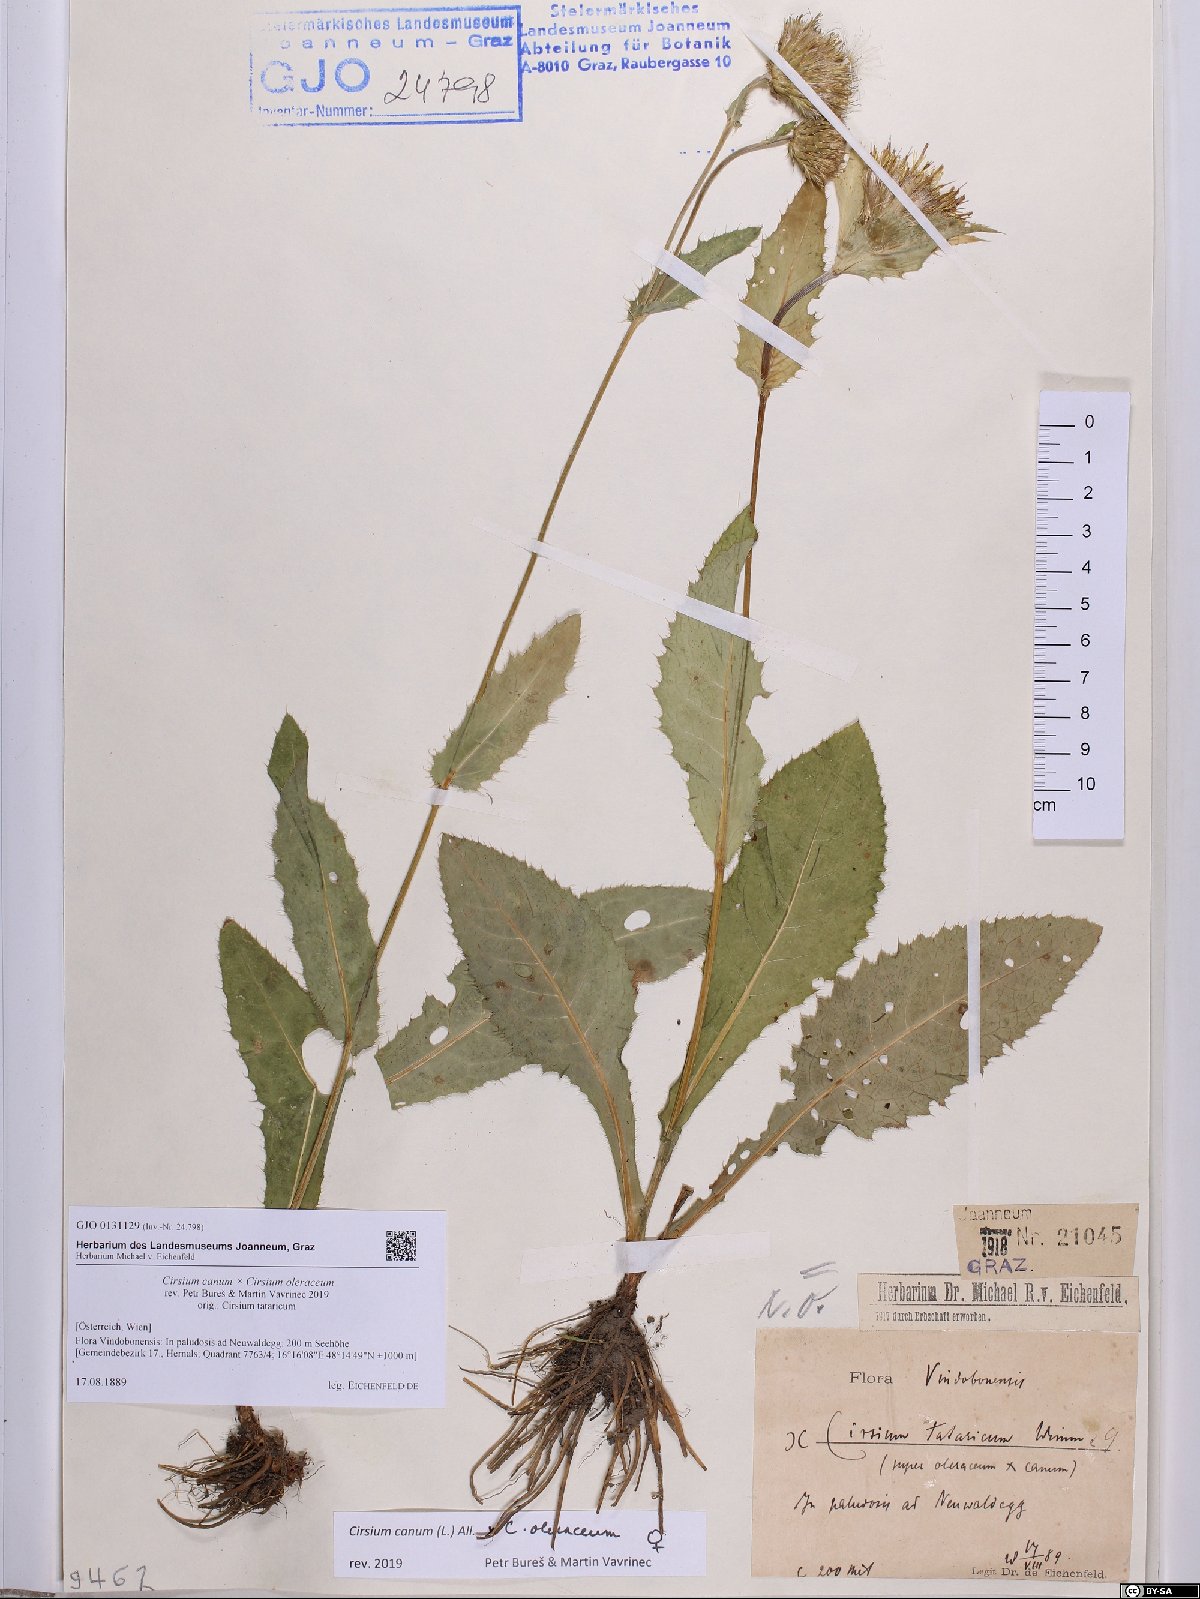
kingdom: Plantae
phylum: Tracheophyta
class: Magnoliopsida
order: Asterales
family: Asteraceae
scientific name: Asteraceae
